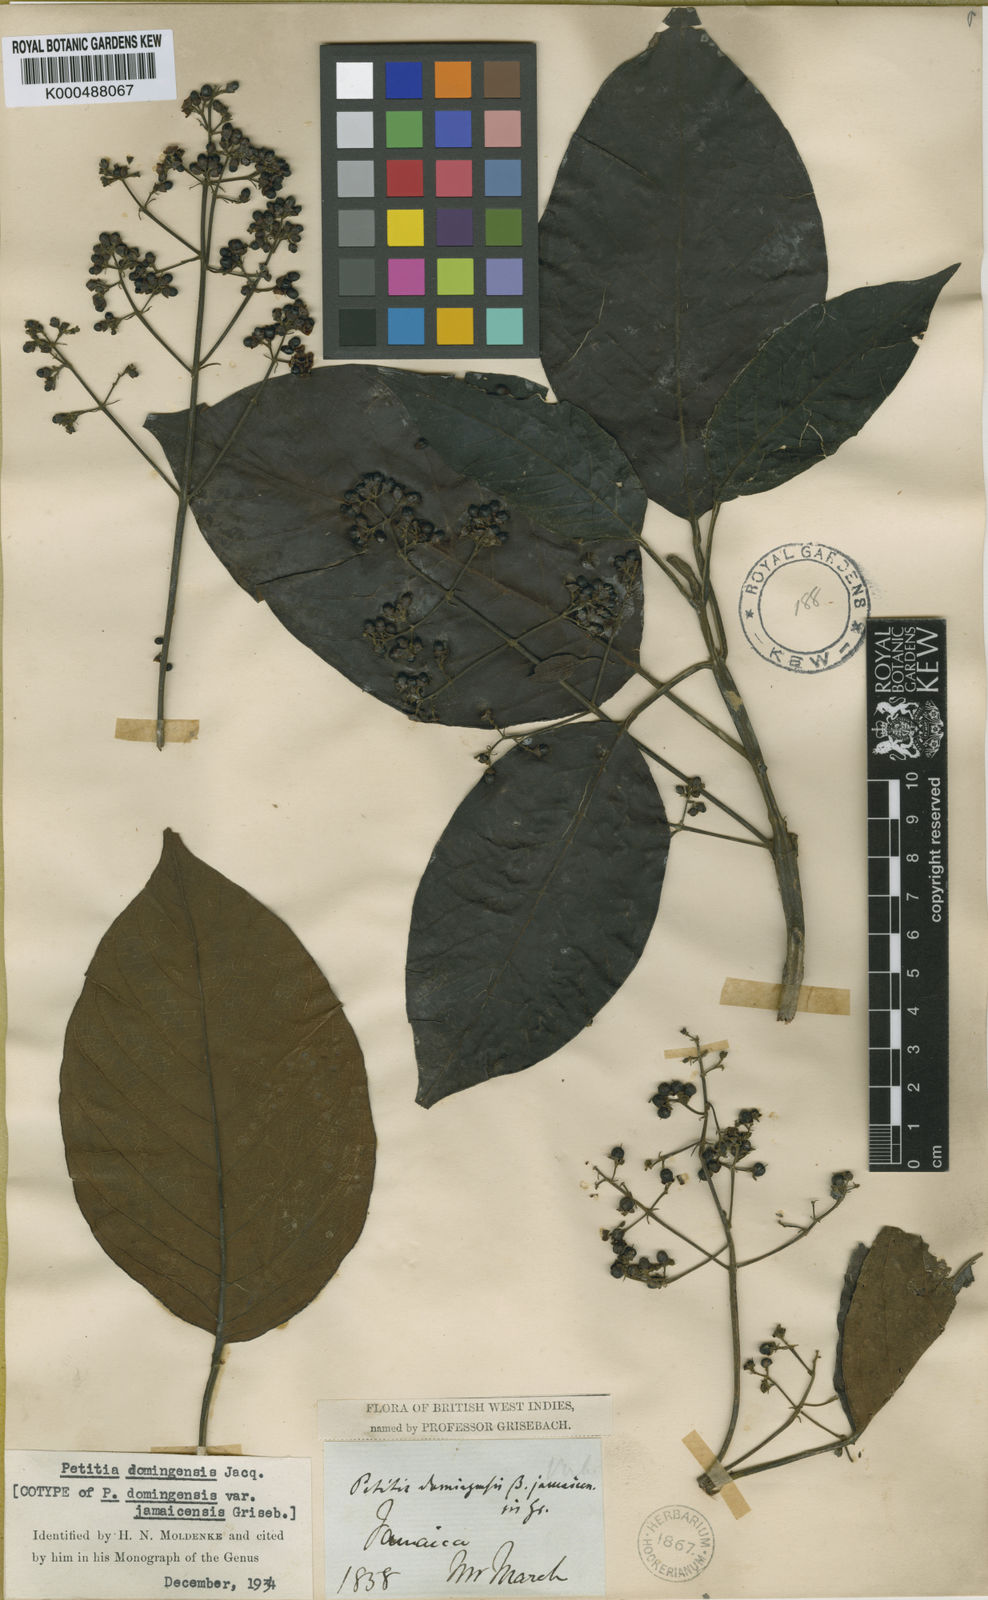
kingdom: Plantae
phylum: Tracheophyta
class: Magnoliopsida
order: Lamiales
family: Lamiaceae
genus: Petitia
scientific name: Petitia domingensis
